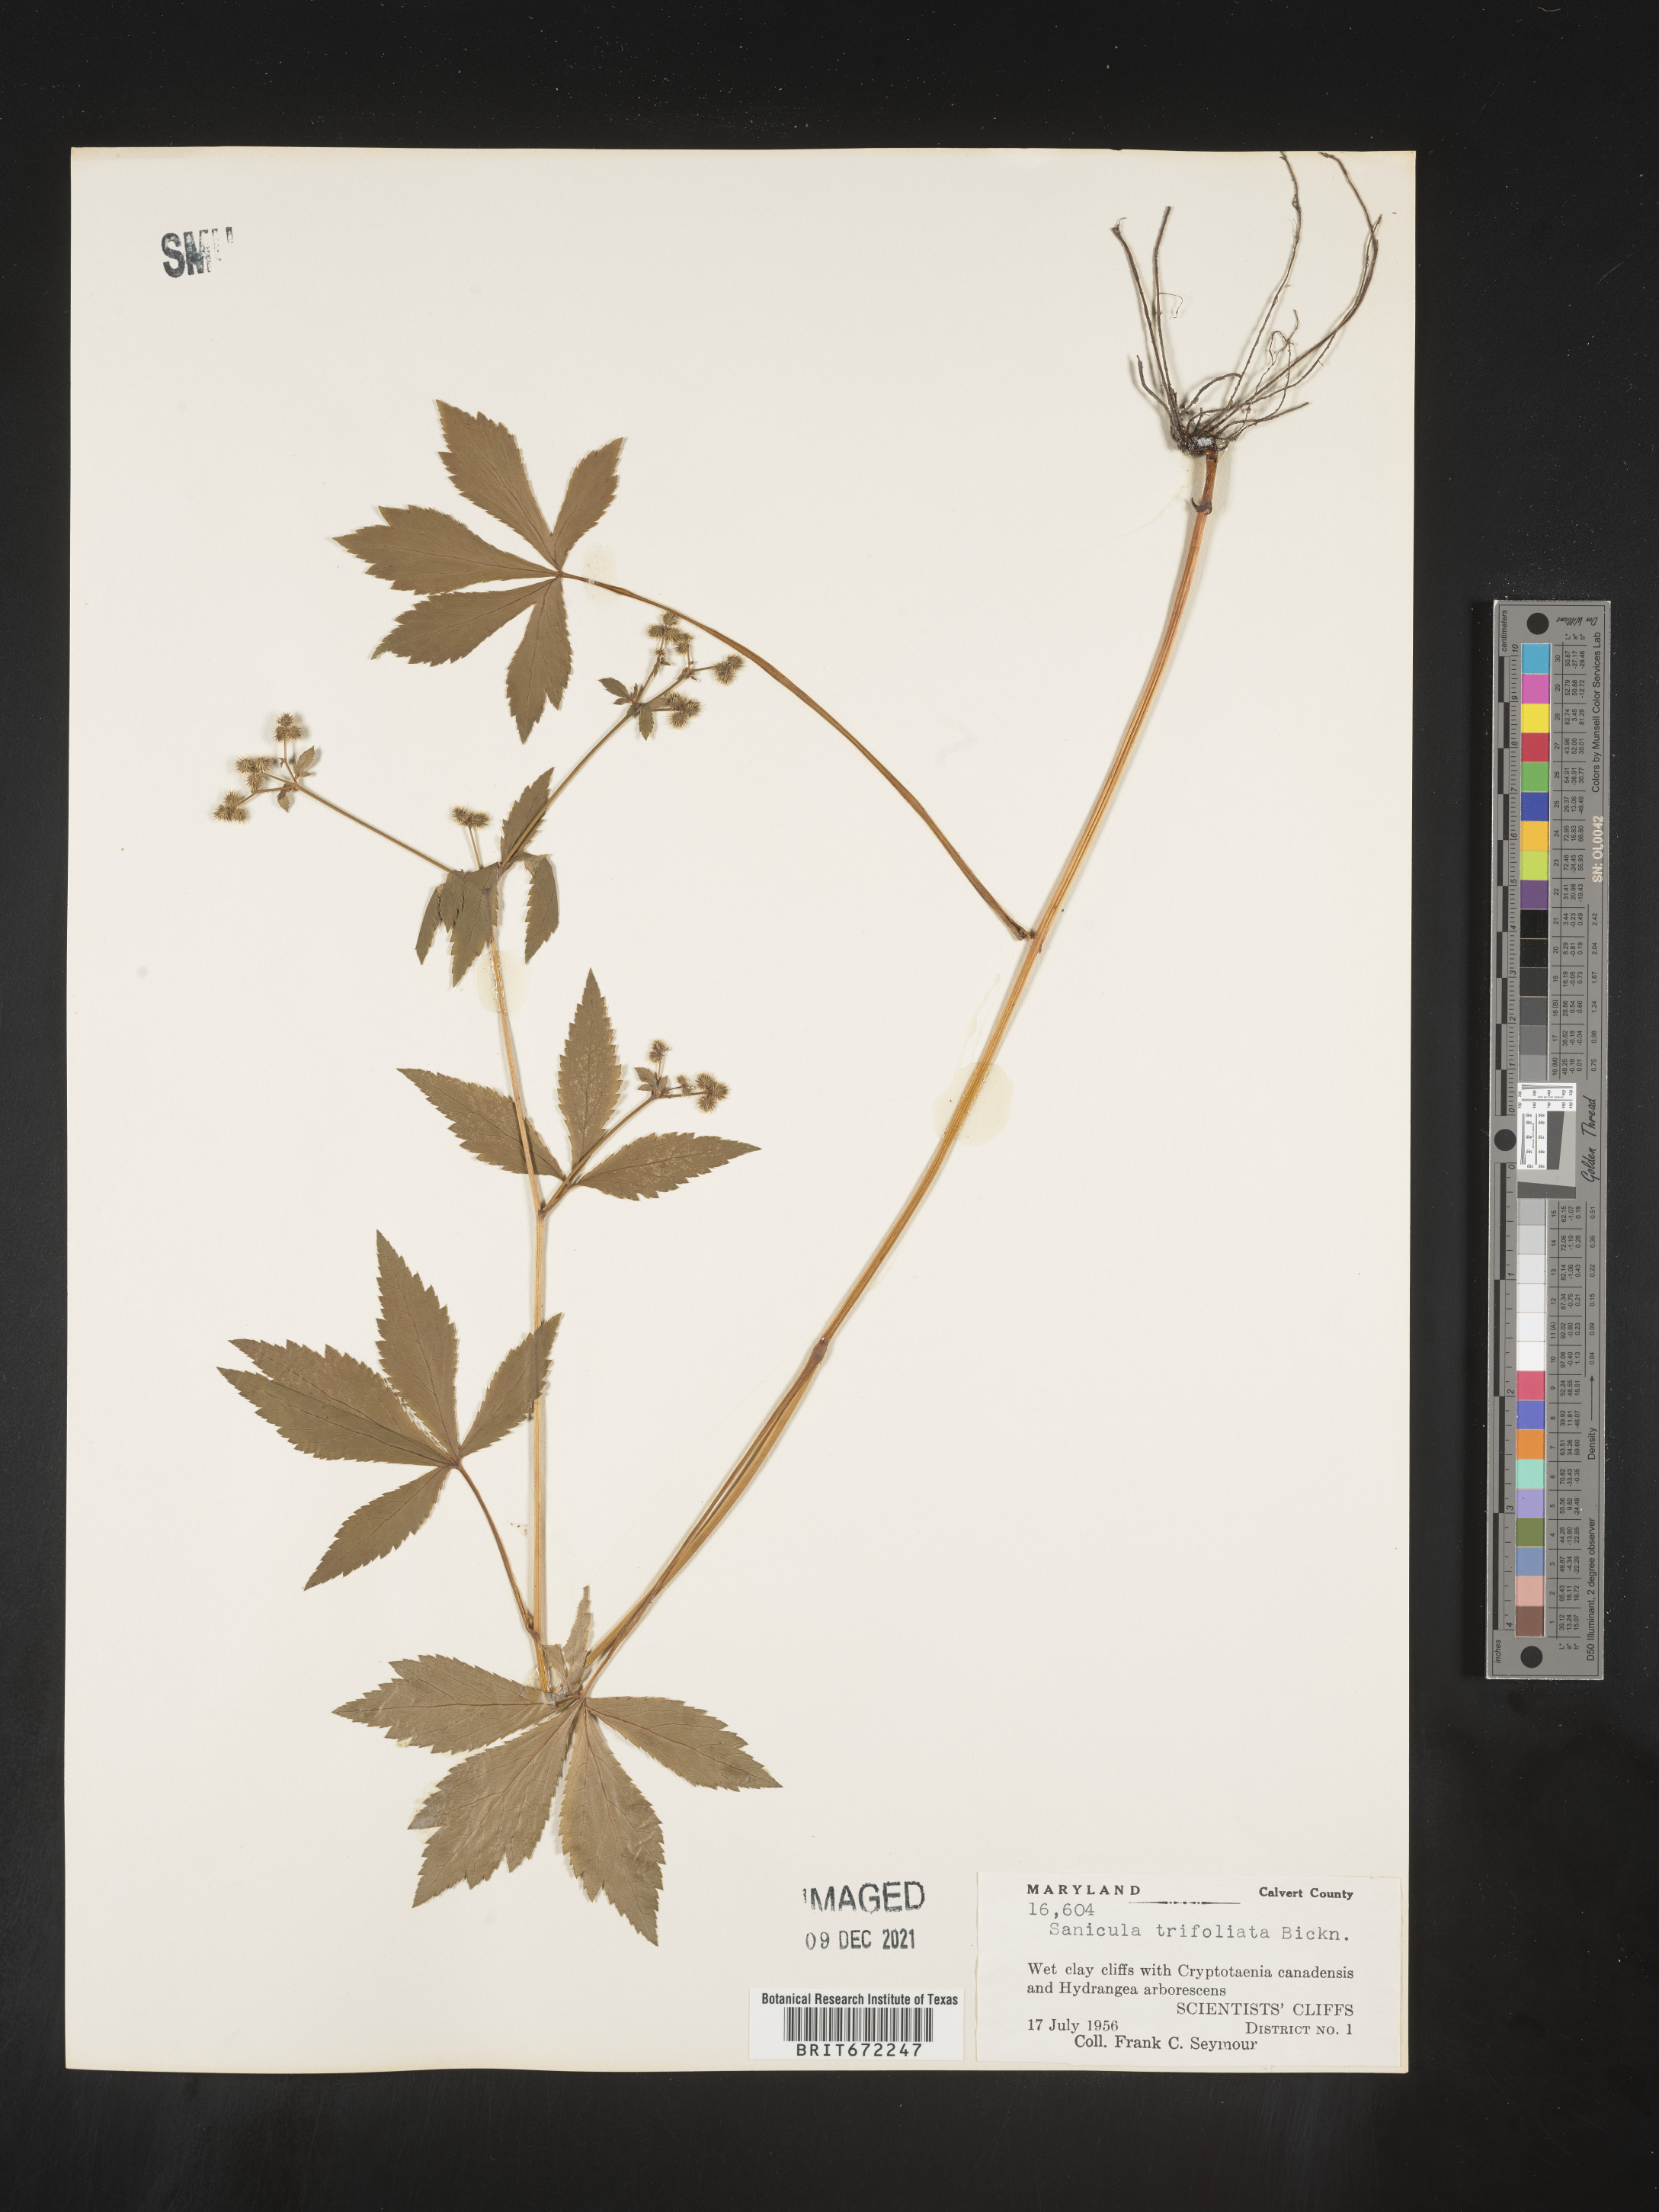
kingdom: Plantae
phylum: Tracheophyta
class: Magnoliopsida
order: Apiales
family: Apiaceae
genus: Sanicula
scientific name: Sanicula
